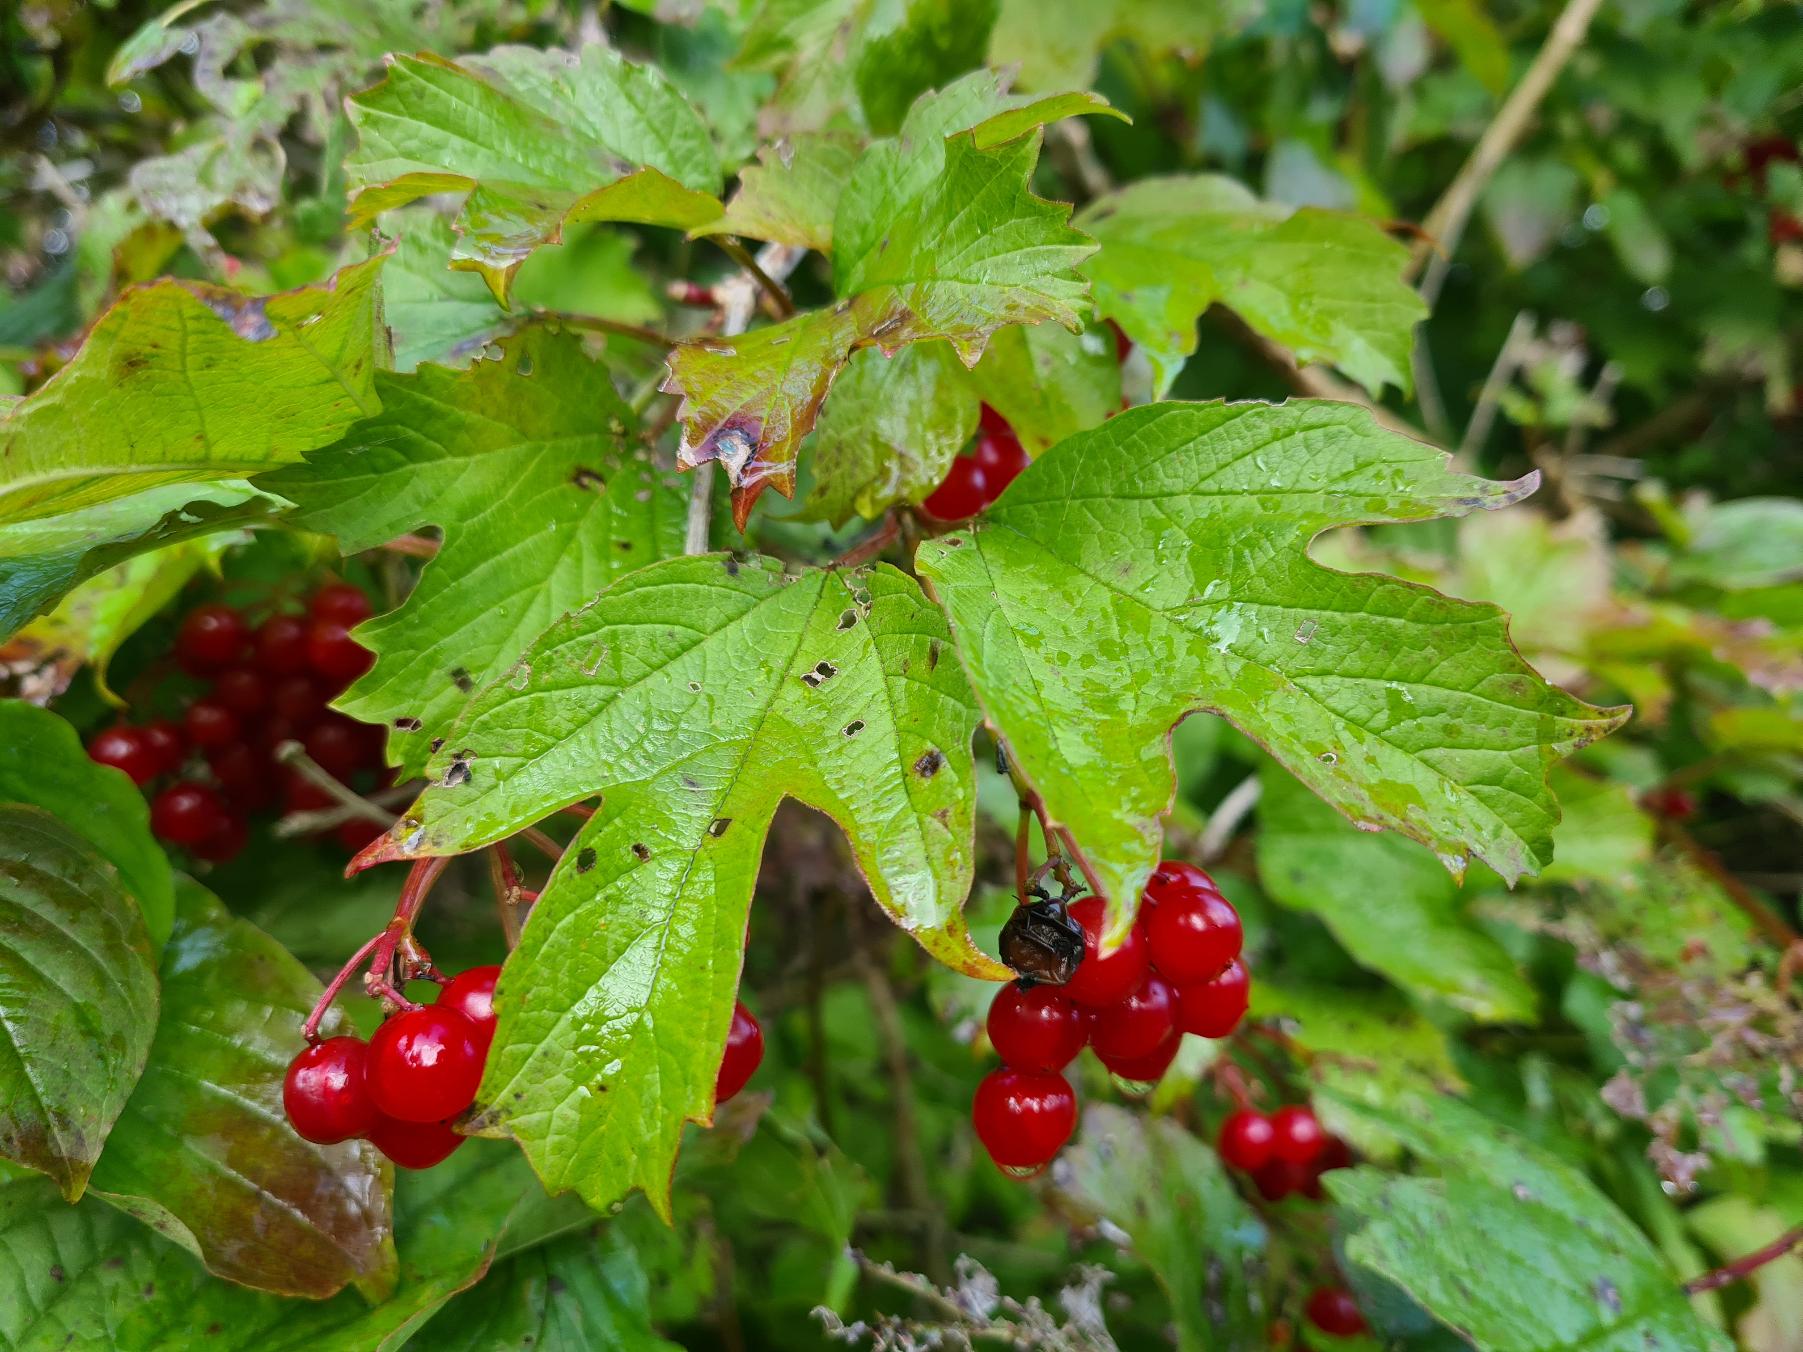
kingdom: Plantae
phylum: Tracheophyta
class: Magnoliopsida
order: Dipsacales
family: Viburnaceae
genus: Viburnum
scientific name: Viburnum opulus
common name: Kvalkved
